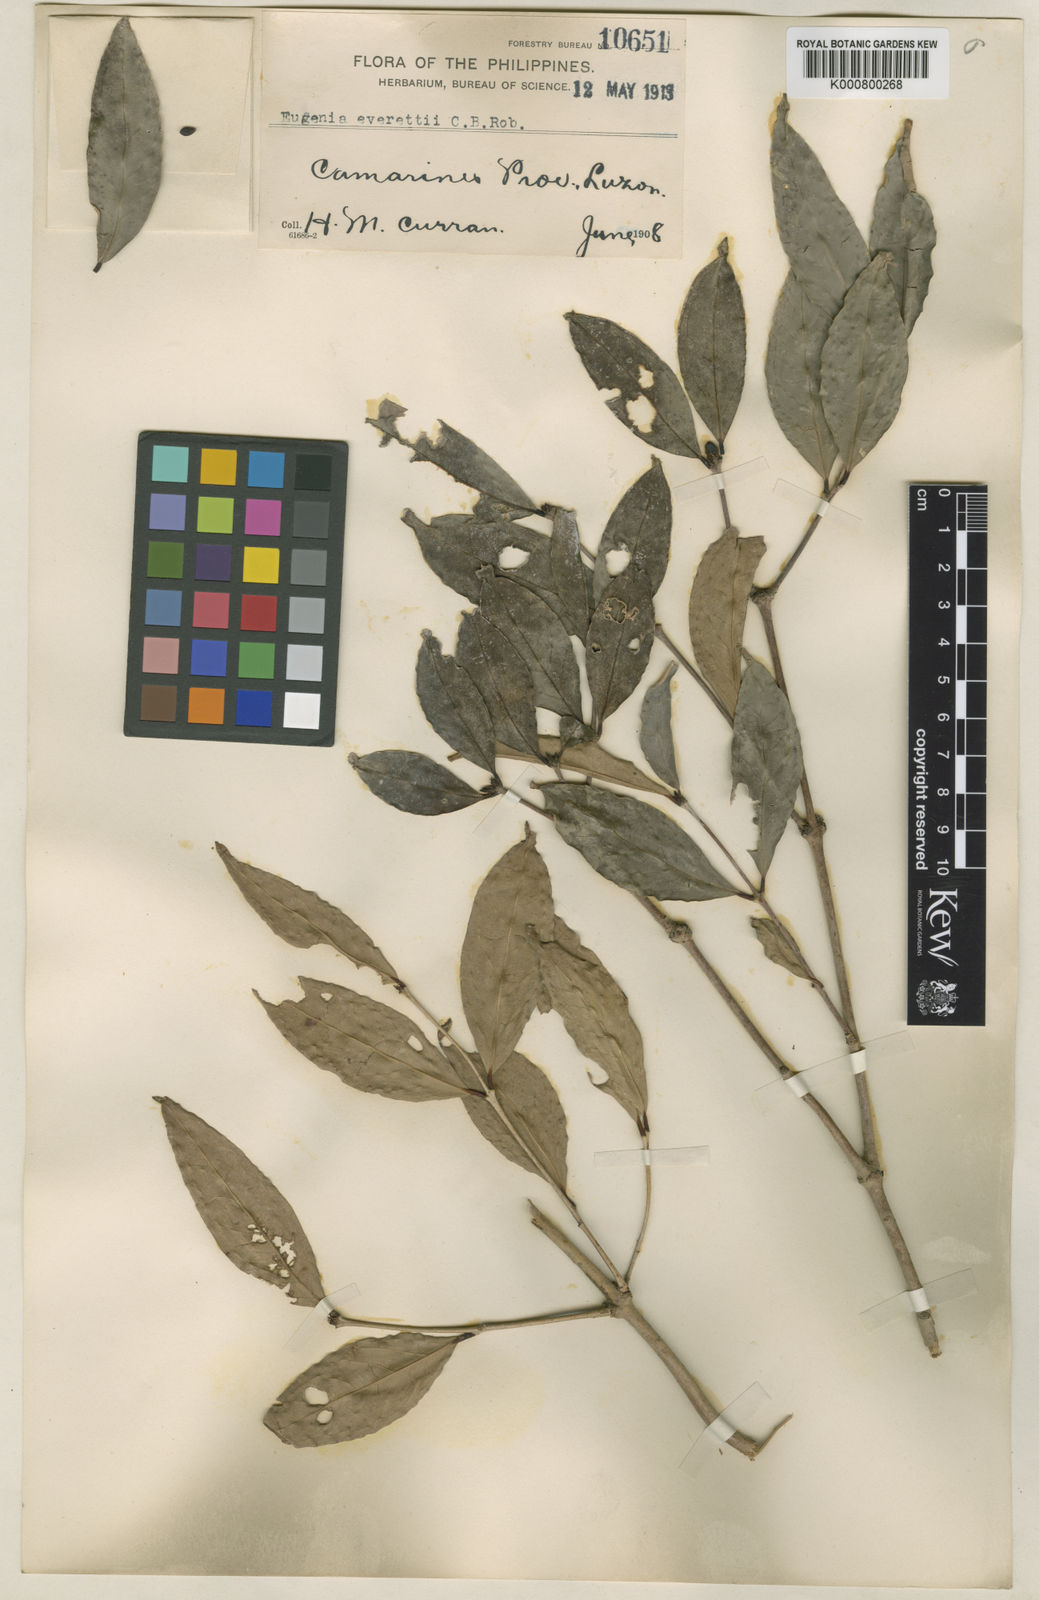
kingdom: Plantae
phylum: Tracheophyta
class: Magnoliopsida
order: Myrtales
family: Myrtaceae
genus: Syzygium
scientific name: Syzygium everettii
